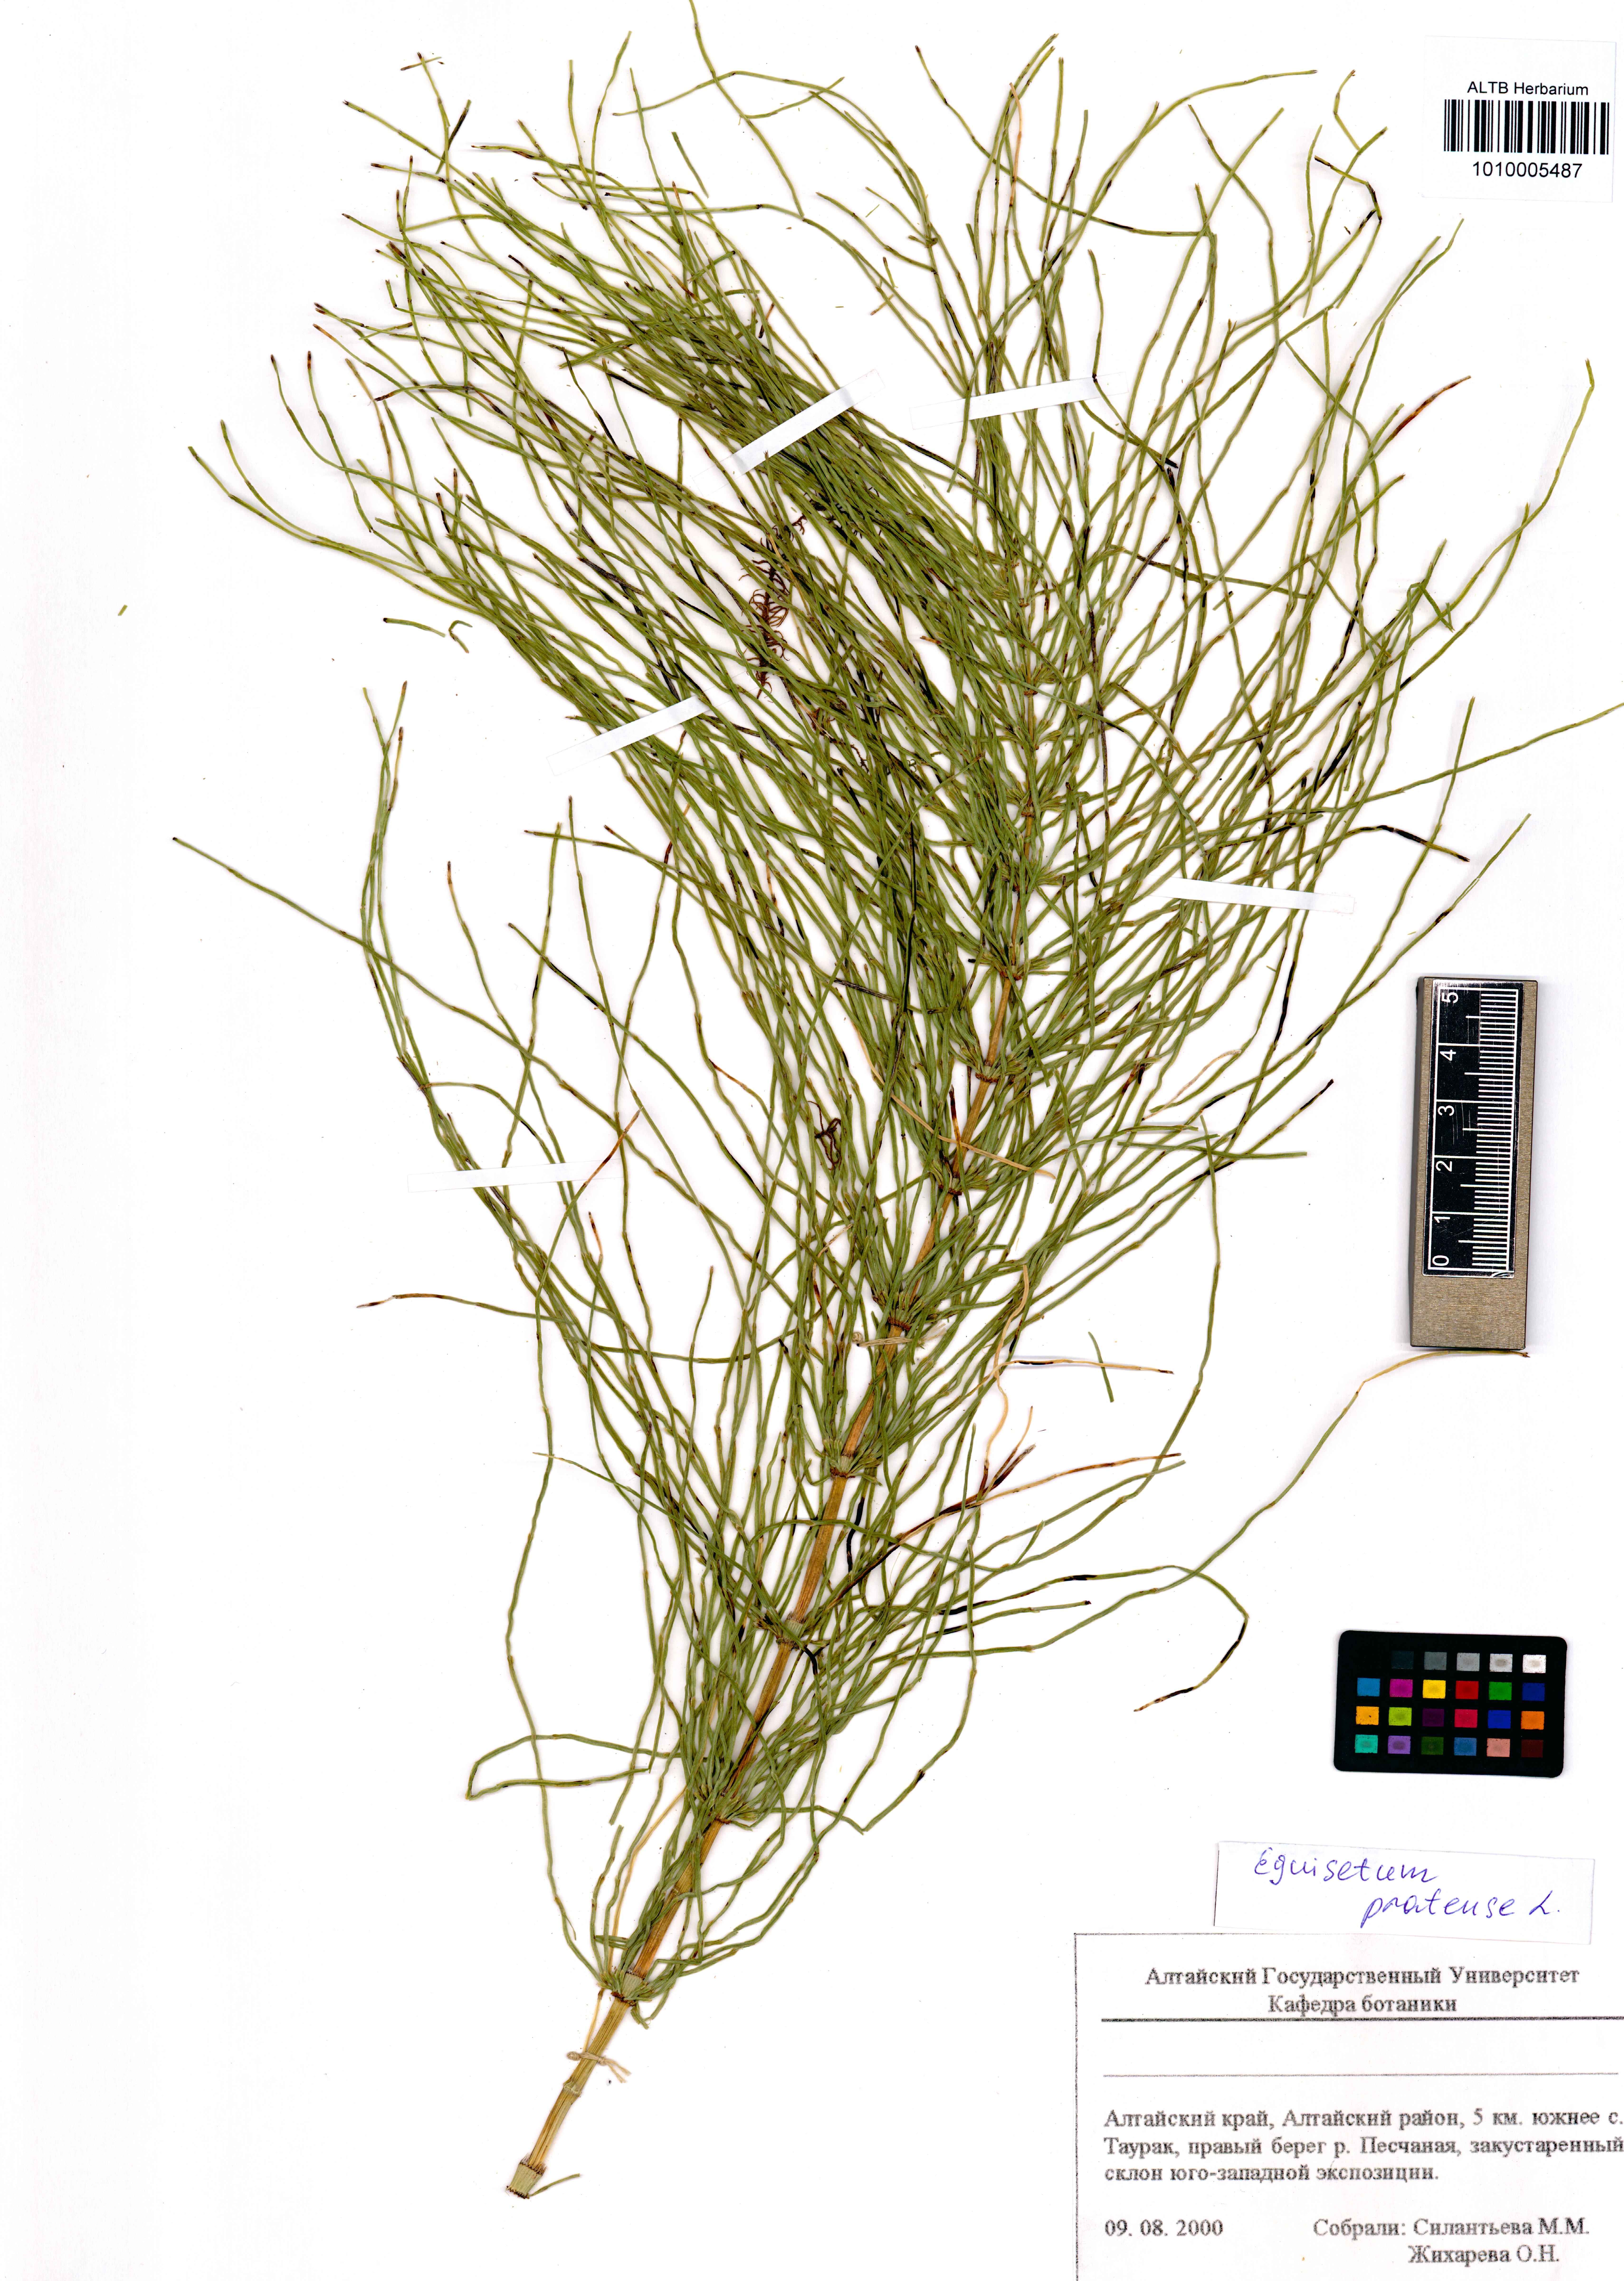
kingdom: Plantae
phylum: Tracheophyta
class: Polypodiopsida
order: Equisetales
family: Equisetaceae
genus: Equisetum
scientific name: Equisetum pratense
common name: Meadow horsetail
